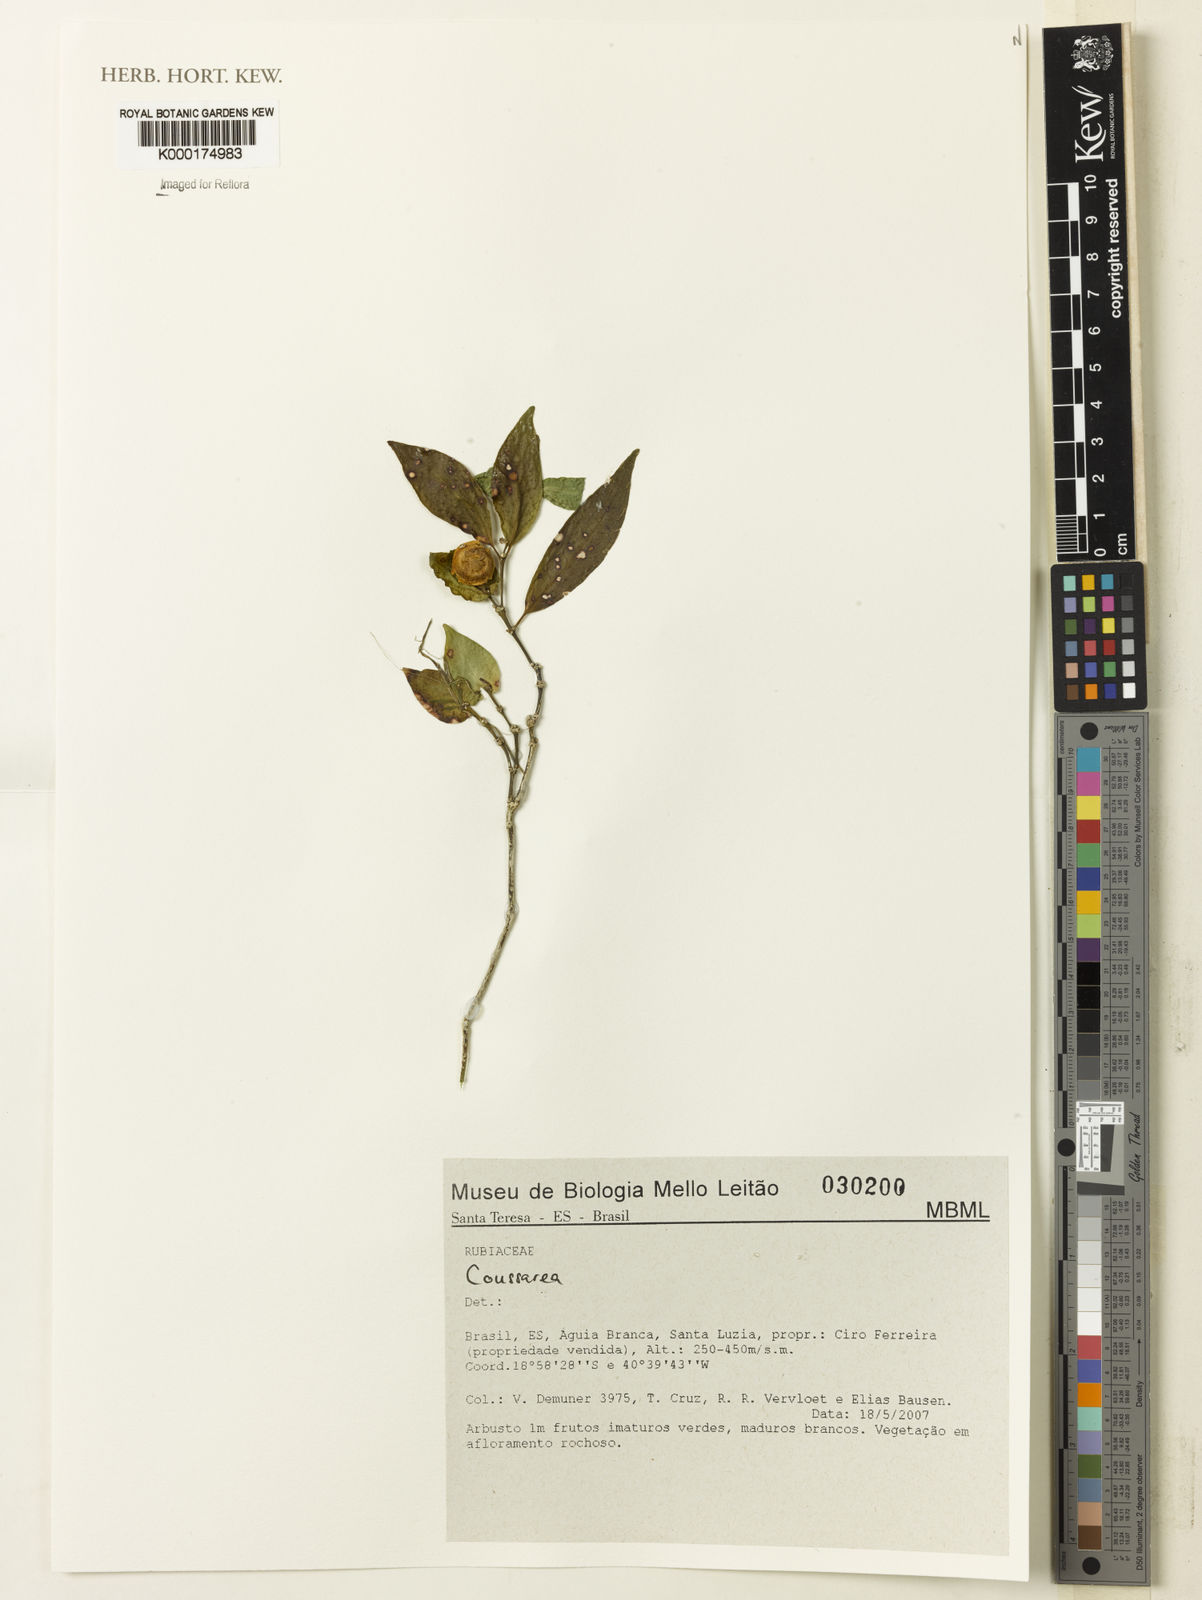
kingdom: Plantae
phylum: Tracheophyta
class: Magnoliopsida
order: Gentianales
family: Rubiaceae
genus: Coussarea
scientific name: Coussarea
